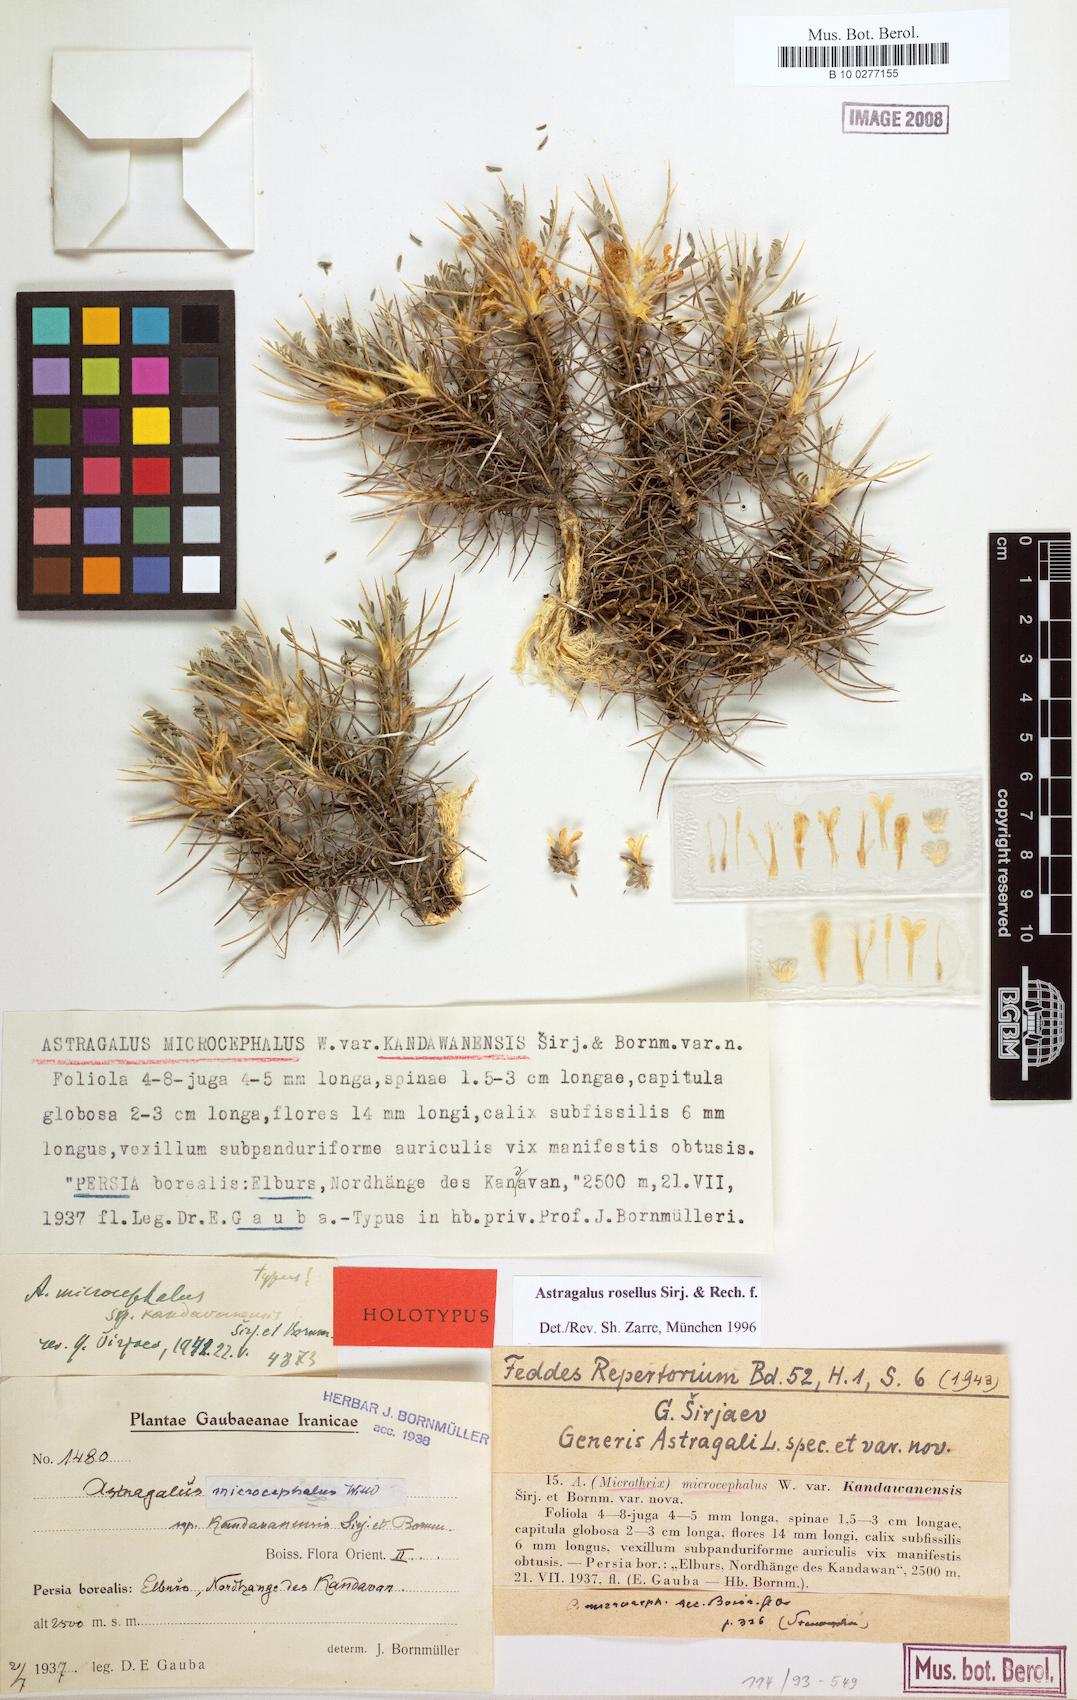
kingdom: Plantae
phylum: Tracheophyta
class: Magnoliopsida
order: Fabales
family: Fabaceae
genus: Astragalus
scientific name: Astragalus rosellus
